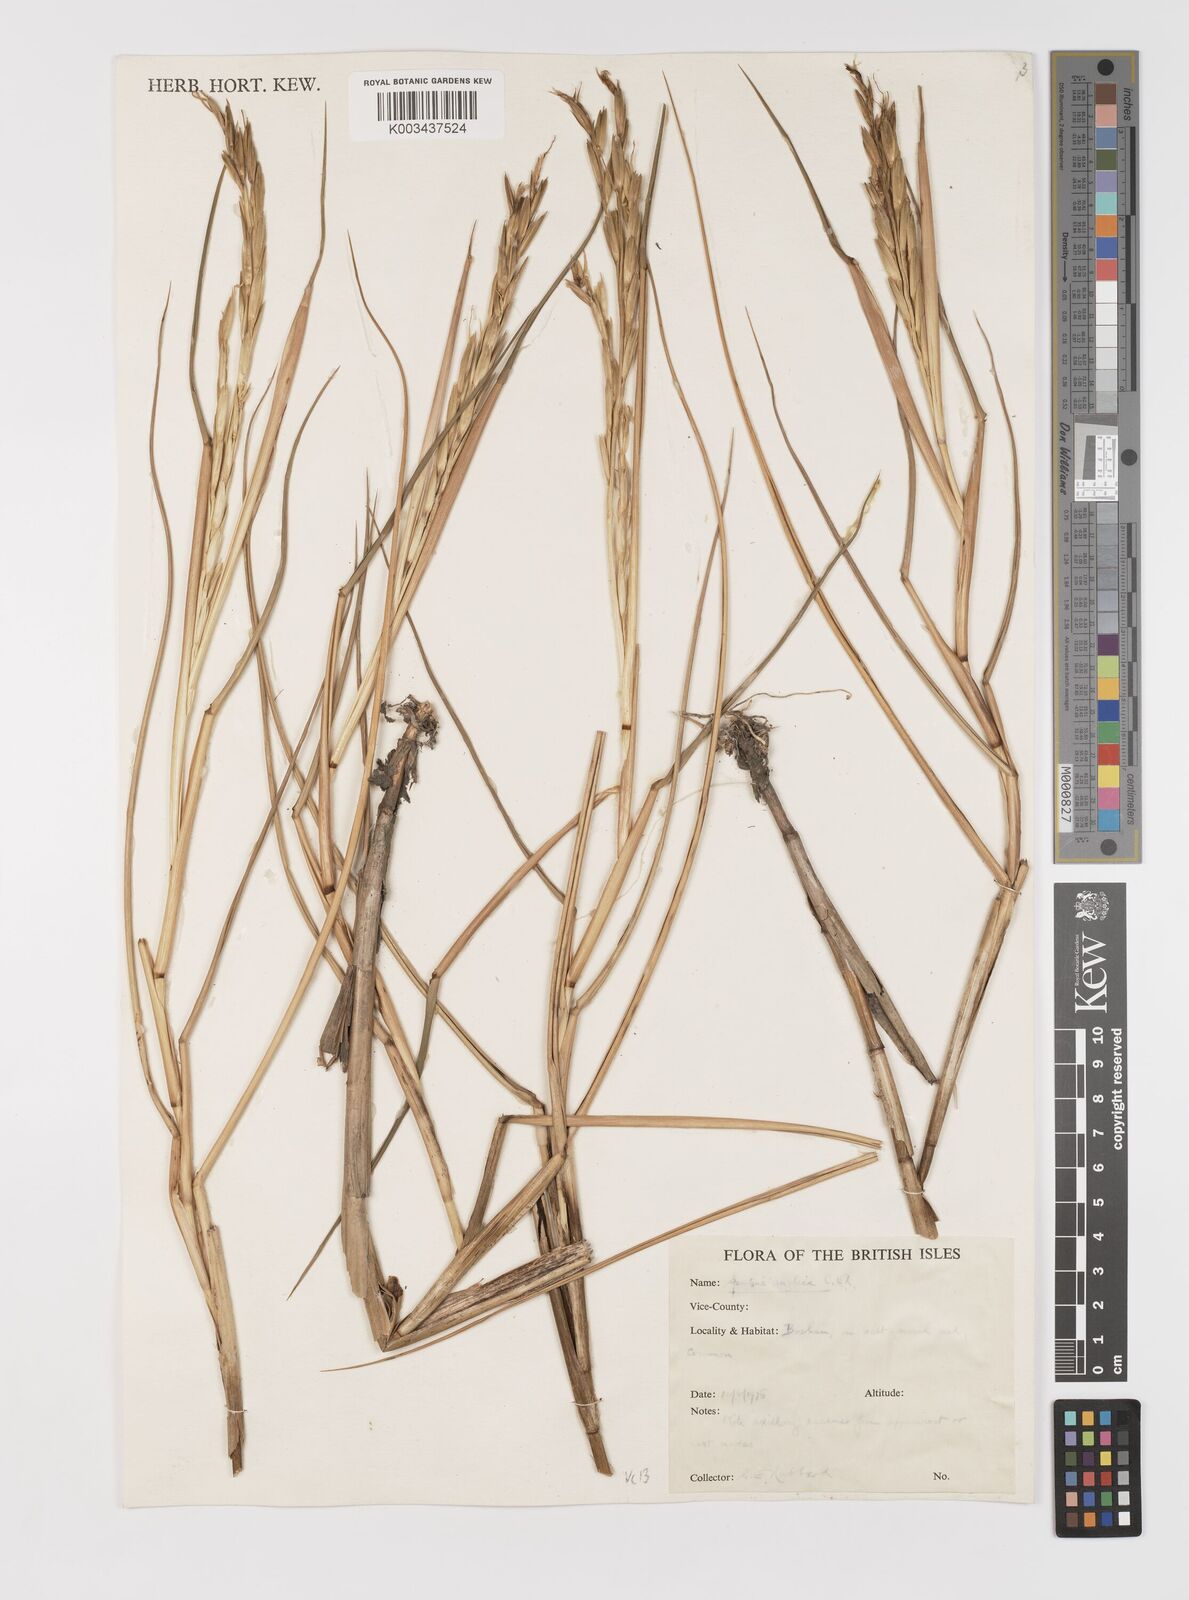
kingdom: Plantae
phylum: Tracheophyta
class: Liliopsida
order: Poales
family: Poaceae
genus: Sporobolus
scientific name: Sporobolus anglicus
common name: English cordgrass
